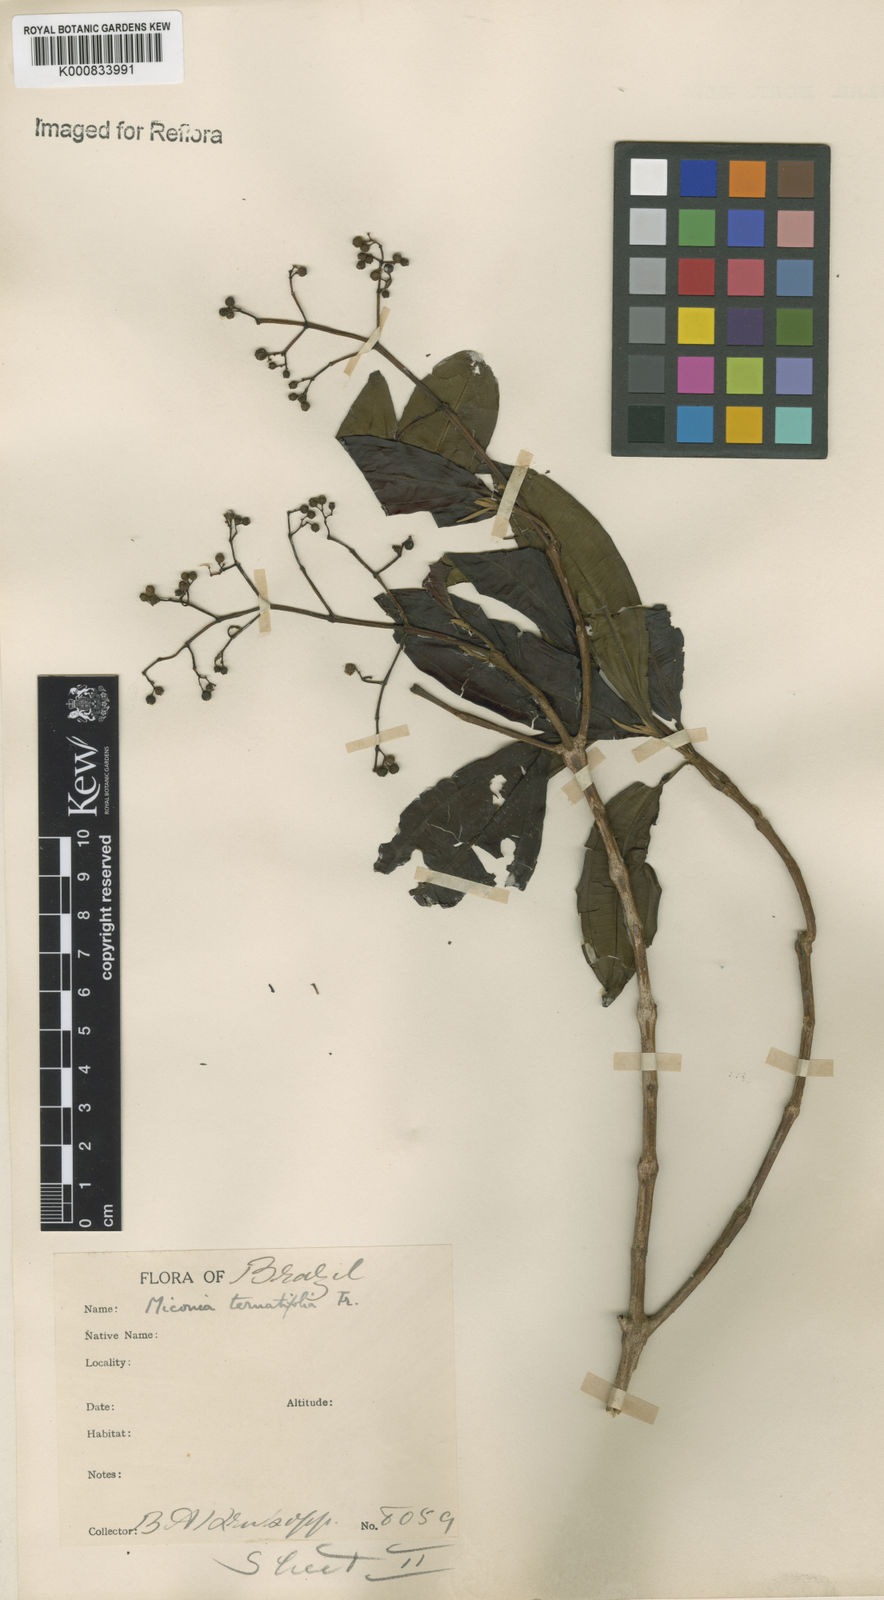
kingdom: Plantae
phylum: Tracheophyta
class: Magnoliopsida
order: Myrtales
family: Melastomataceae
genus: Miconia
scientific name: Miconia ternatifolia
